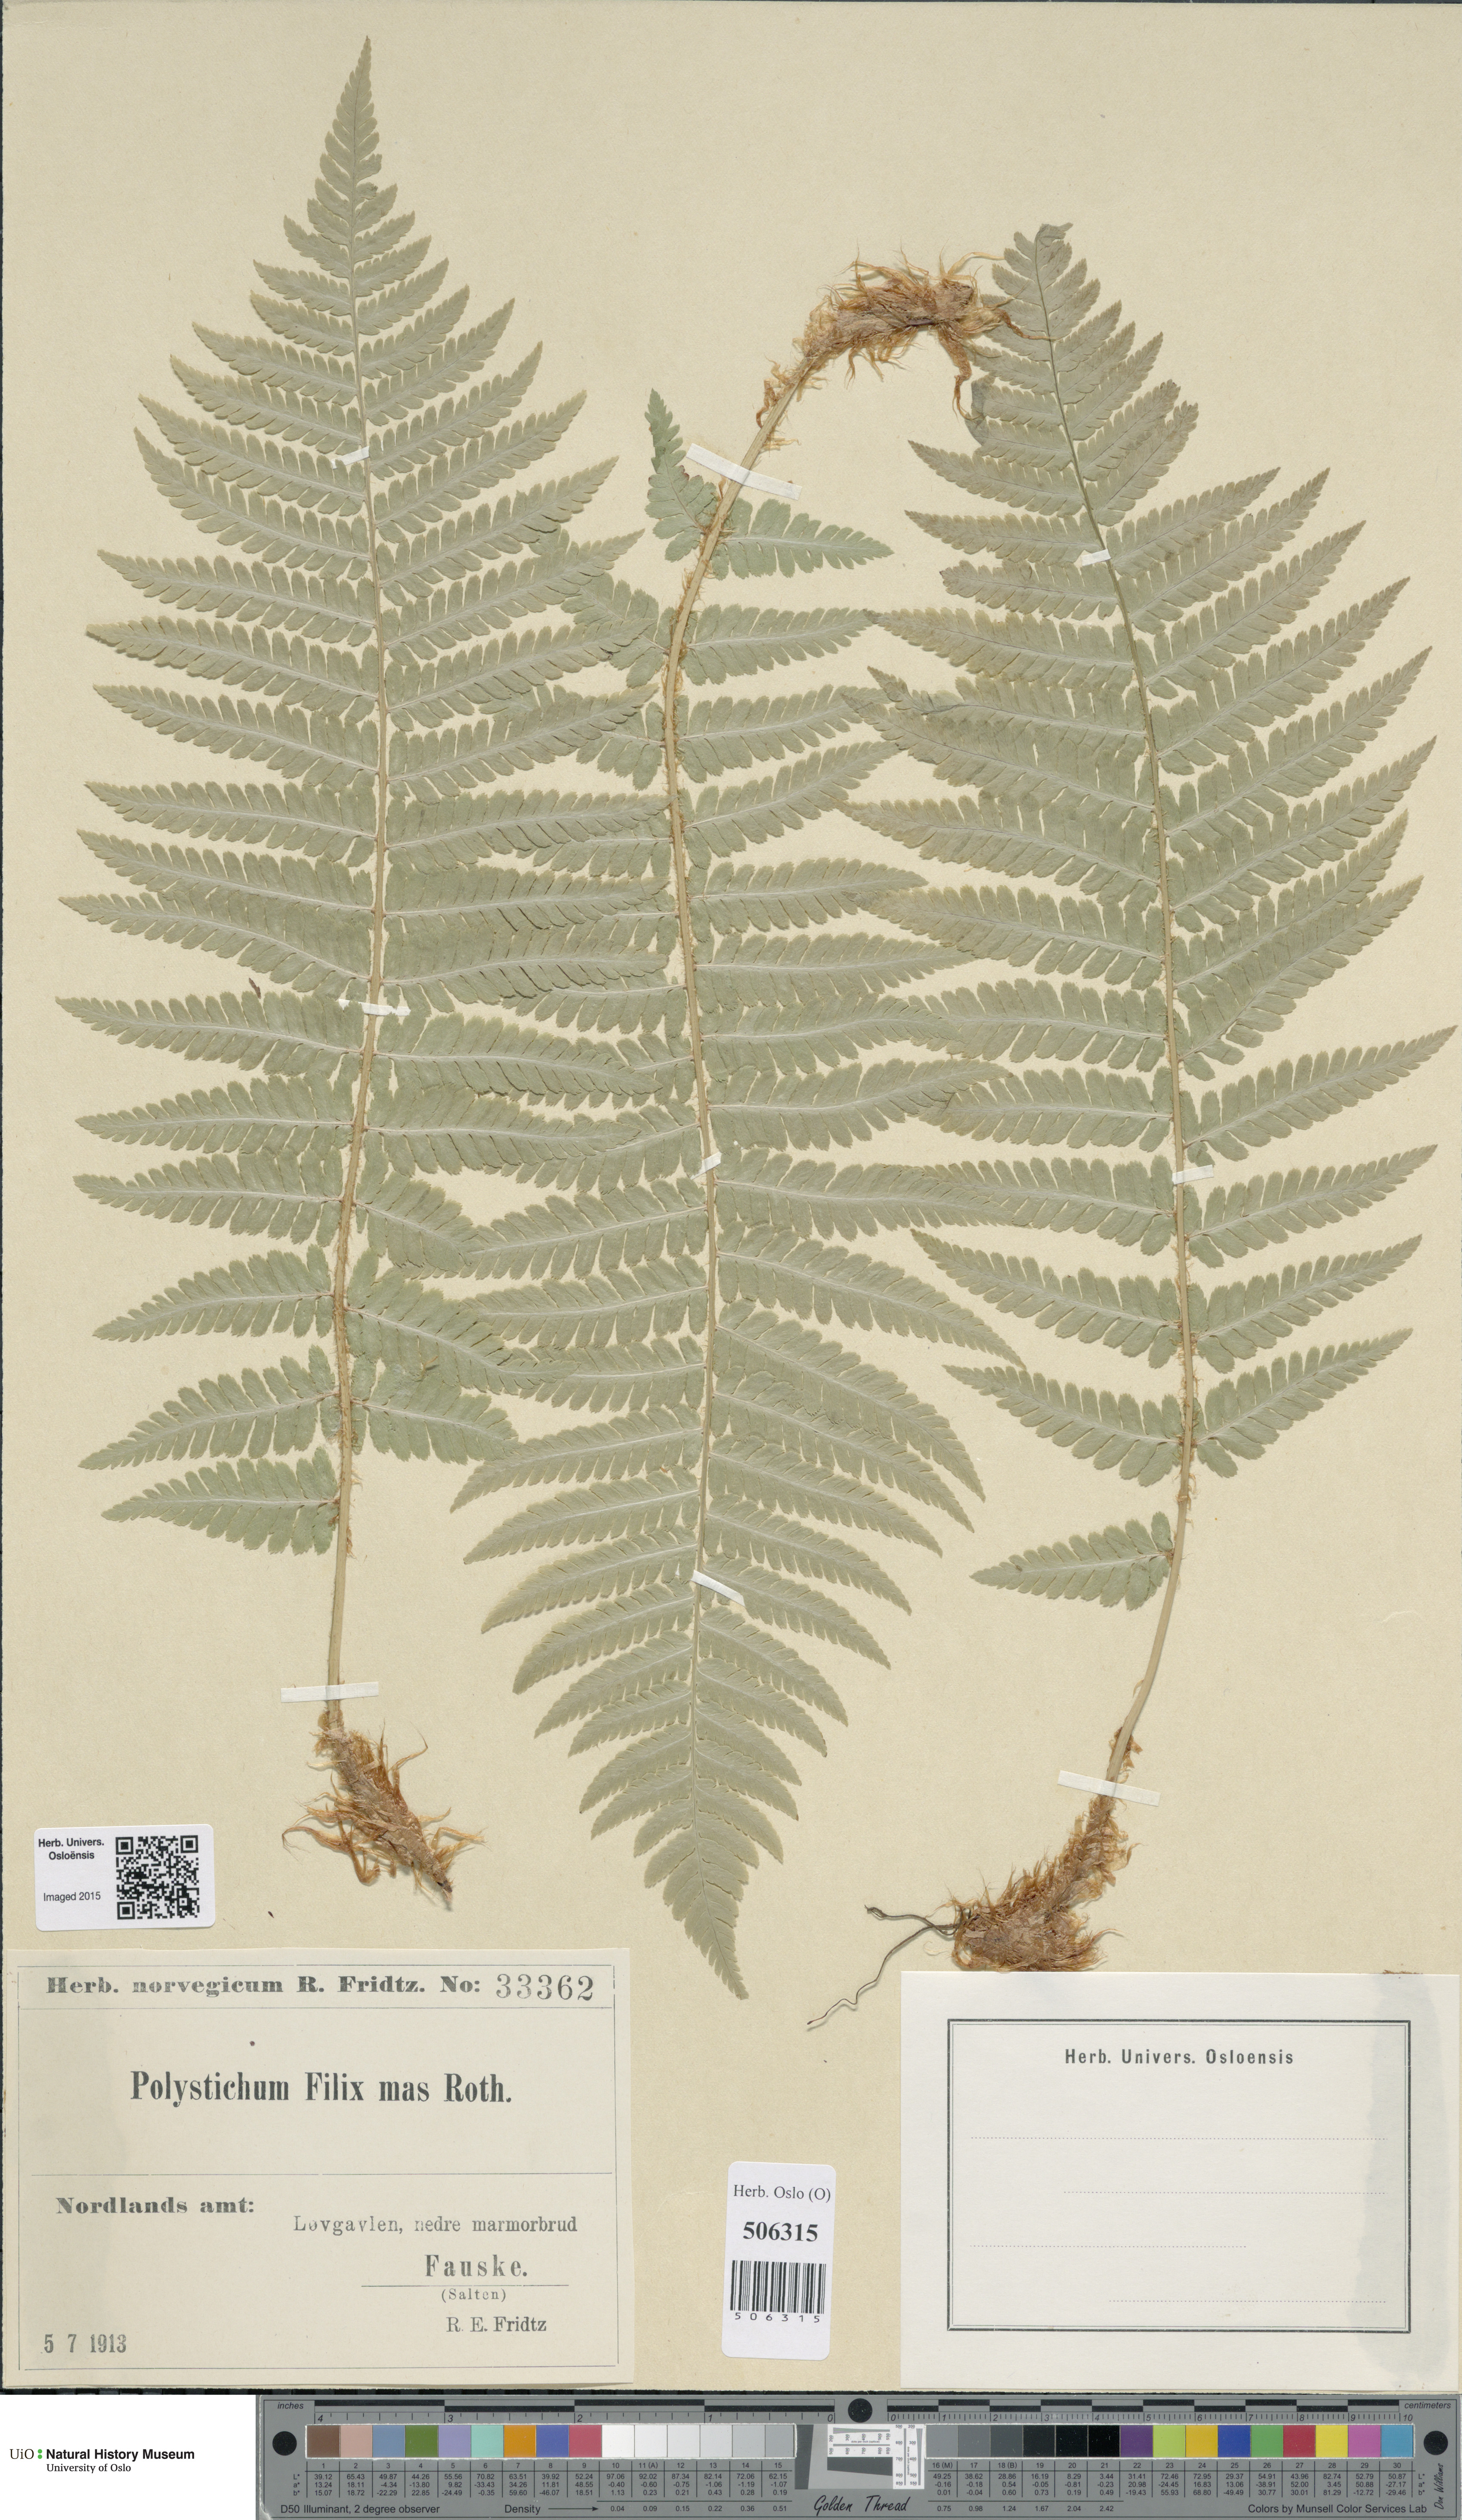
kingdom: Plantae
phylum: Tracheophyta
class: Polypodiopsida
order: Polypodiales
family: Dryopteridaceae
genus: Dryopteris
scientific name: Dryopteris filix-mas
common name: Male fern
